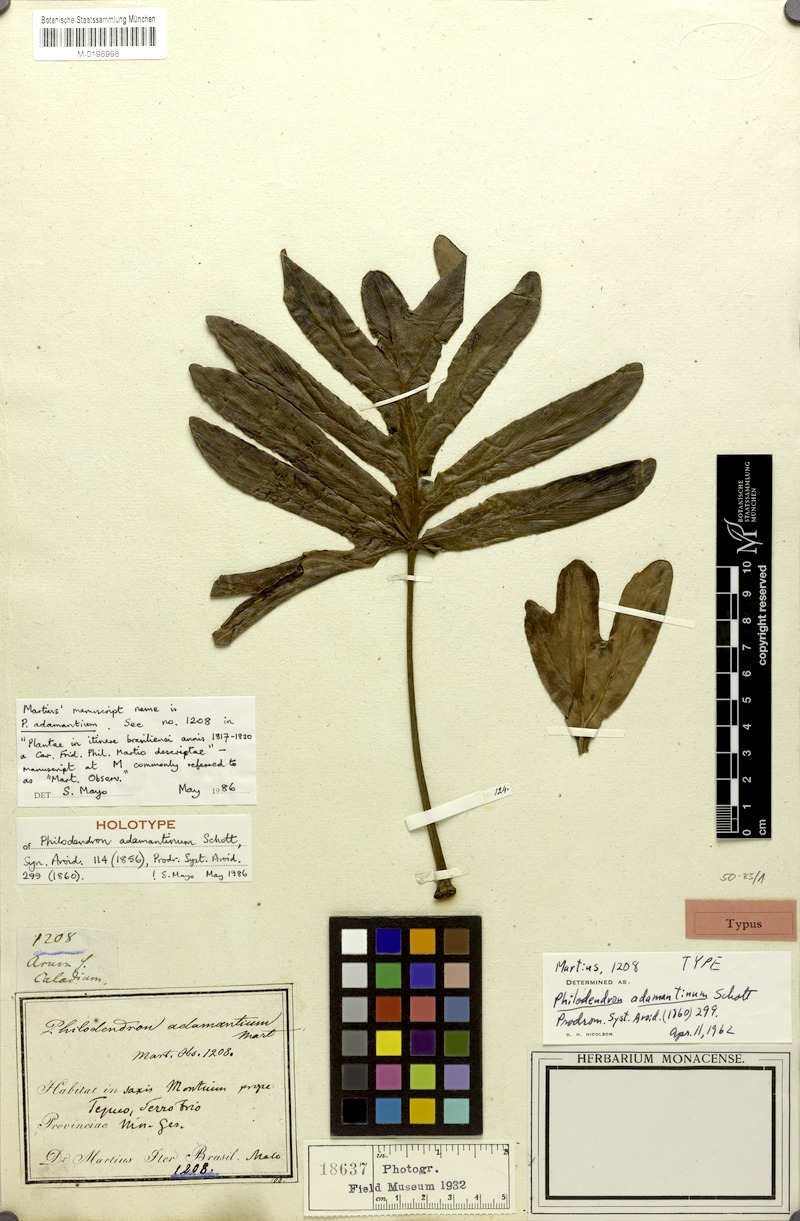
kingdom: Plantae
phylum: Tracheophyta
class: Liliopsida
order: Alismatales
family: Araceae
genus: Thaumatophyllum
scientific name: Thaumatophyllum adamantinum
